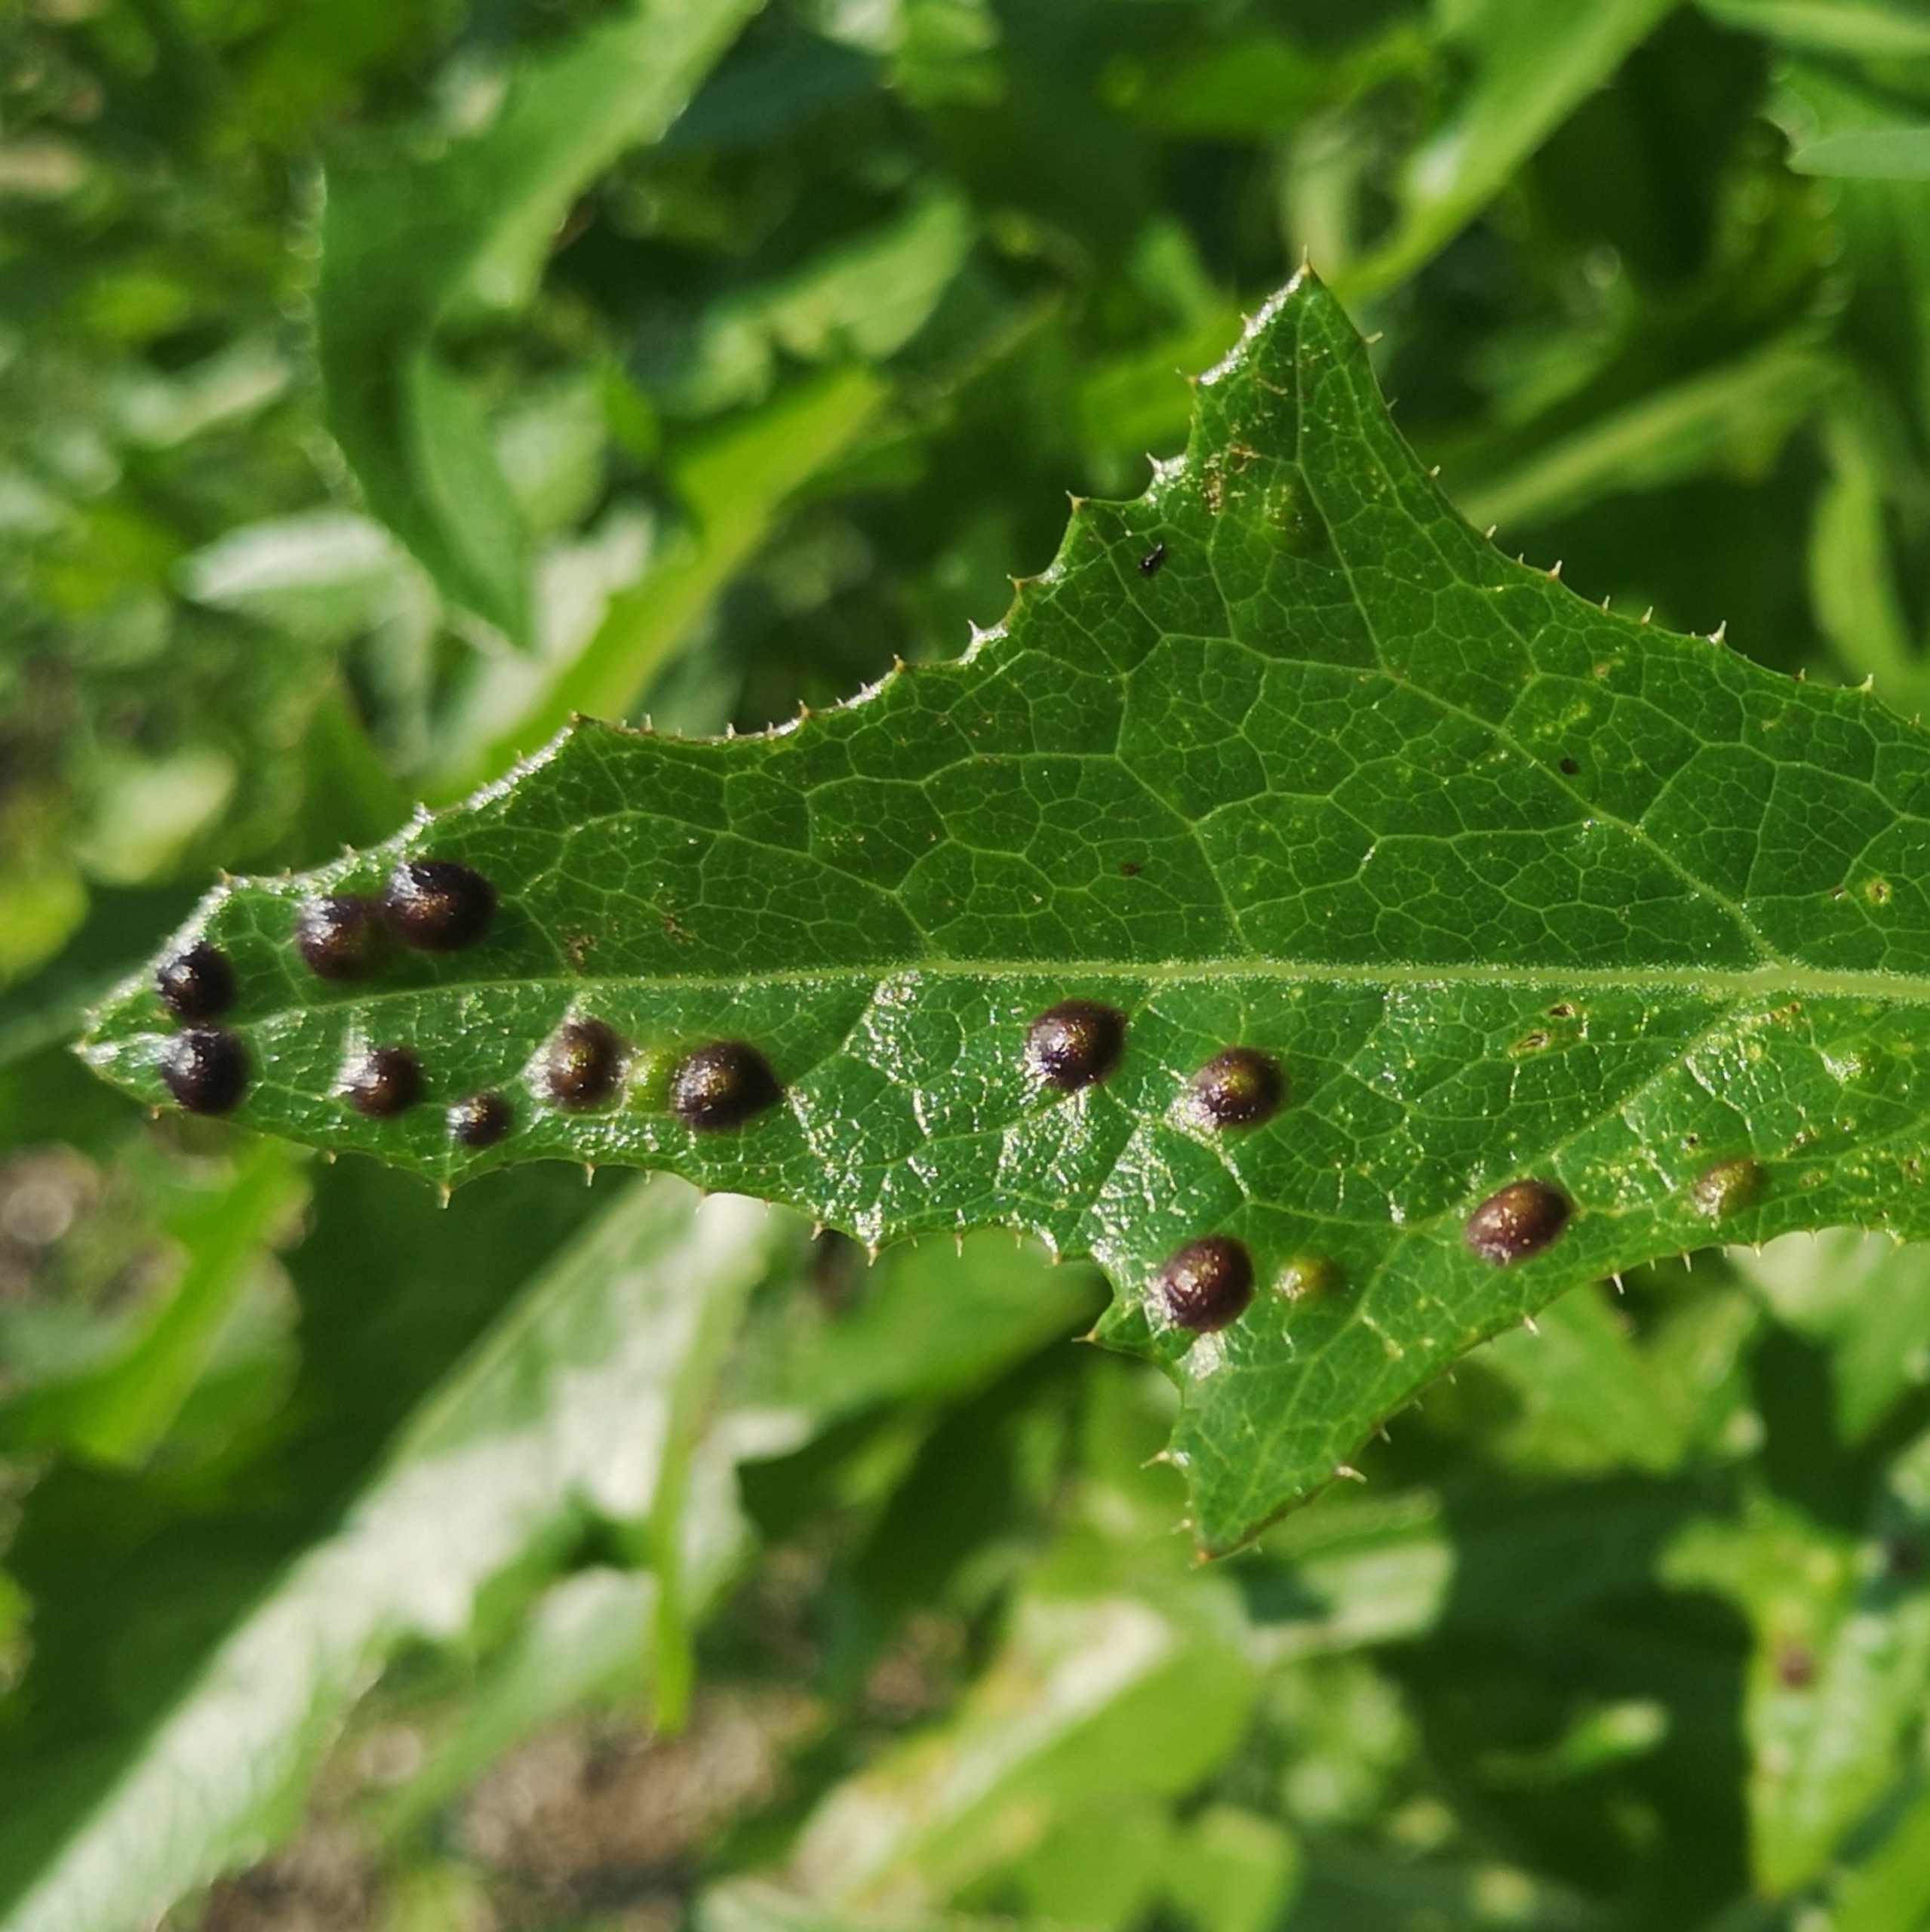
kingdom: Animalia
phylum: Arthropoda
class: Insecta
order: Diptera
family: Cecidomyiidae
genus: Cystiphora
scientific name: Cystiphora sonchi
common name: Svineblæregalmyg
